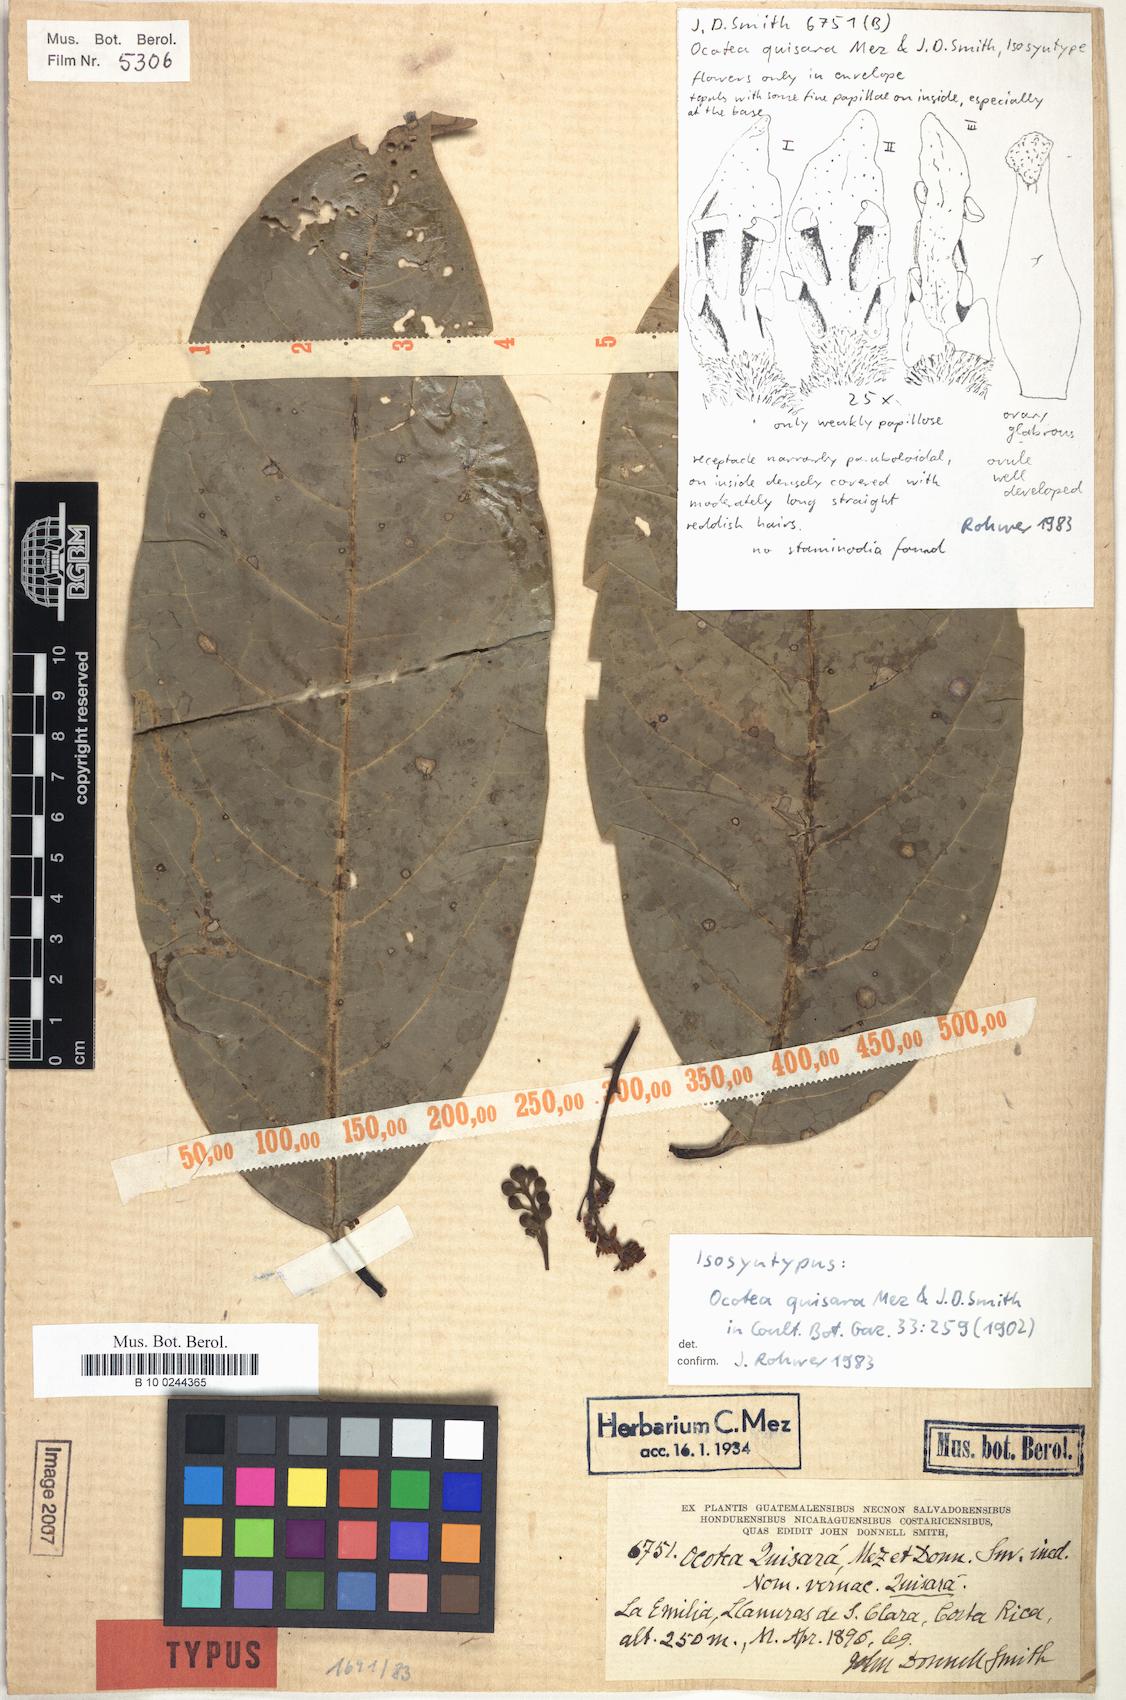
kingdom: Plantae
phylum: Tracheophyta
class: Magnoliopsida
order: Laurales
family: Lauraceae
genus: Mespilodaphne
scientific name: Mespilodaphne macrophylla
